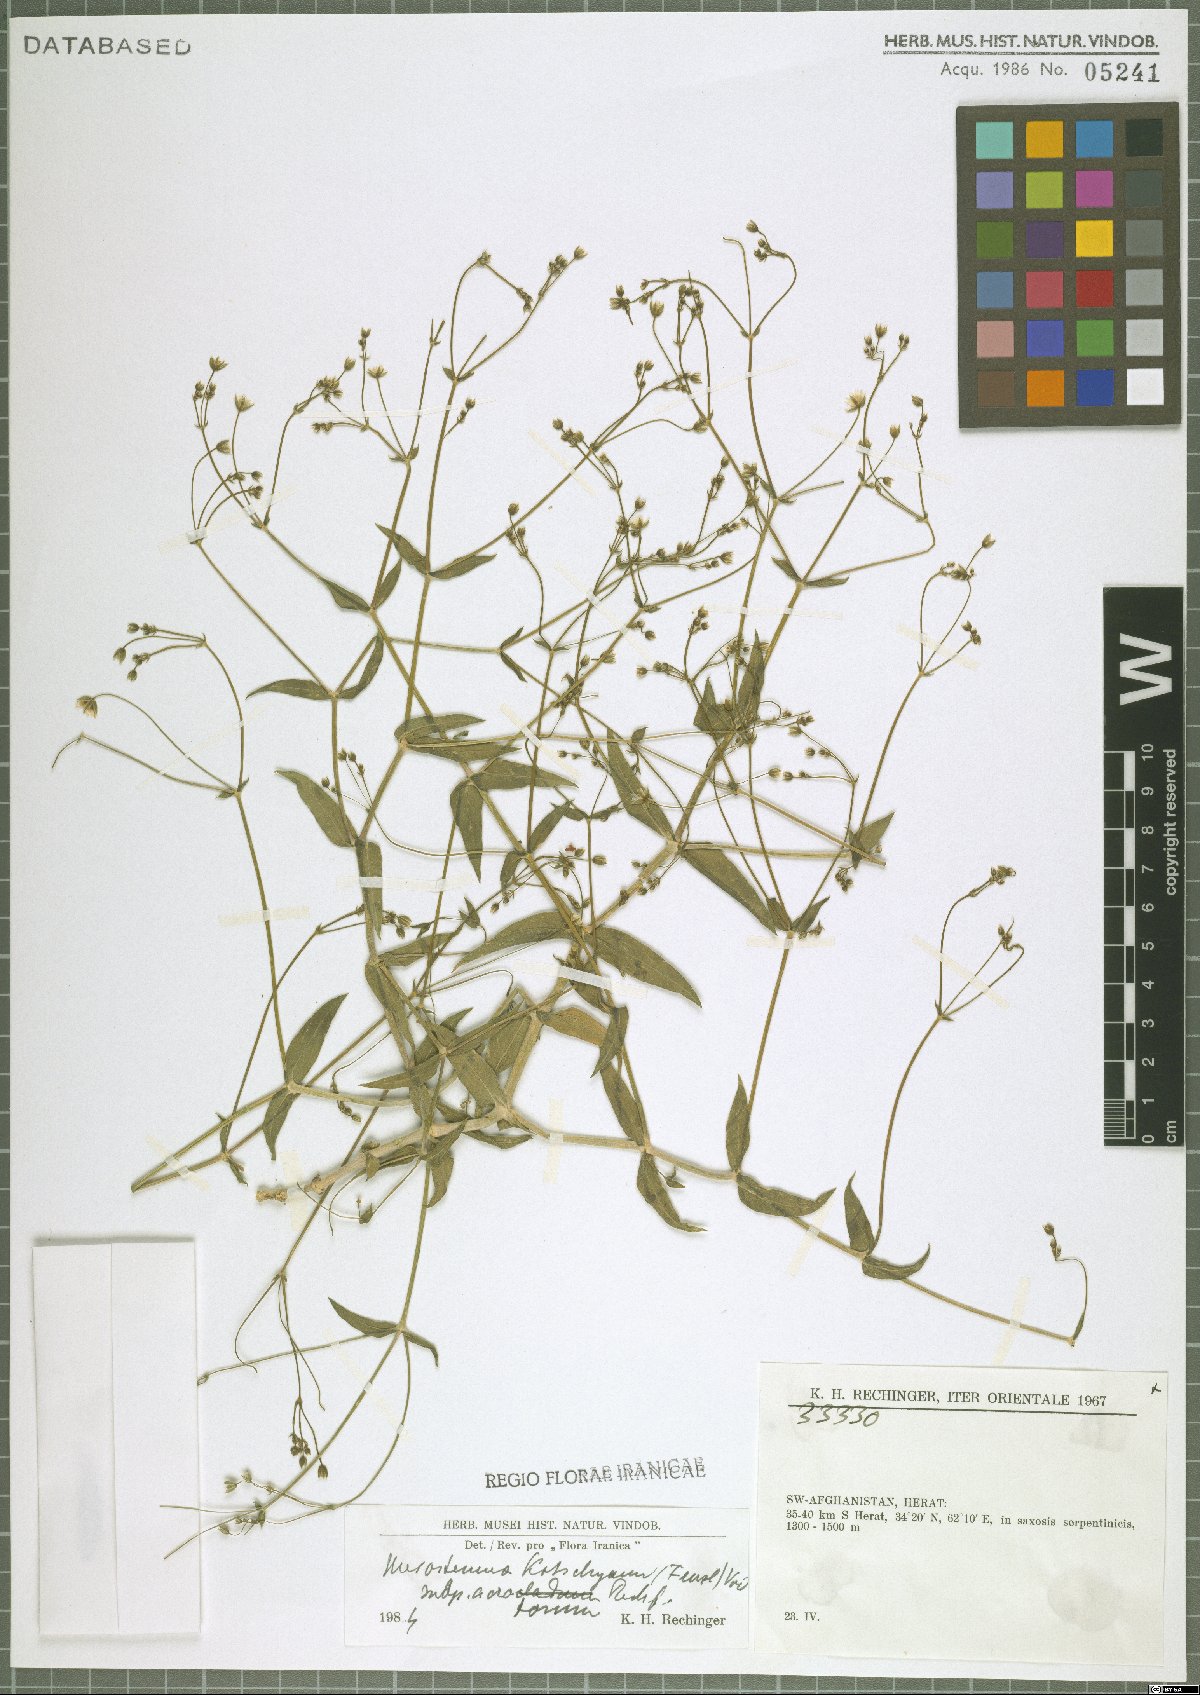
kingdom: Plantae
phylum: Tracheophyta
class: Magnoliopsida
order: Caryophyllales
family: Caryophyllaceae
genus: Mesostemma
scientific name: Mesostemma kotschyanum
